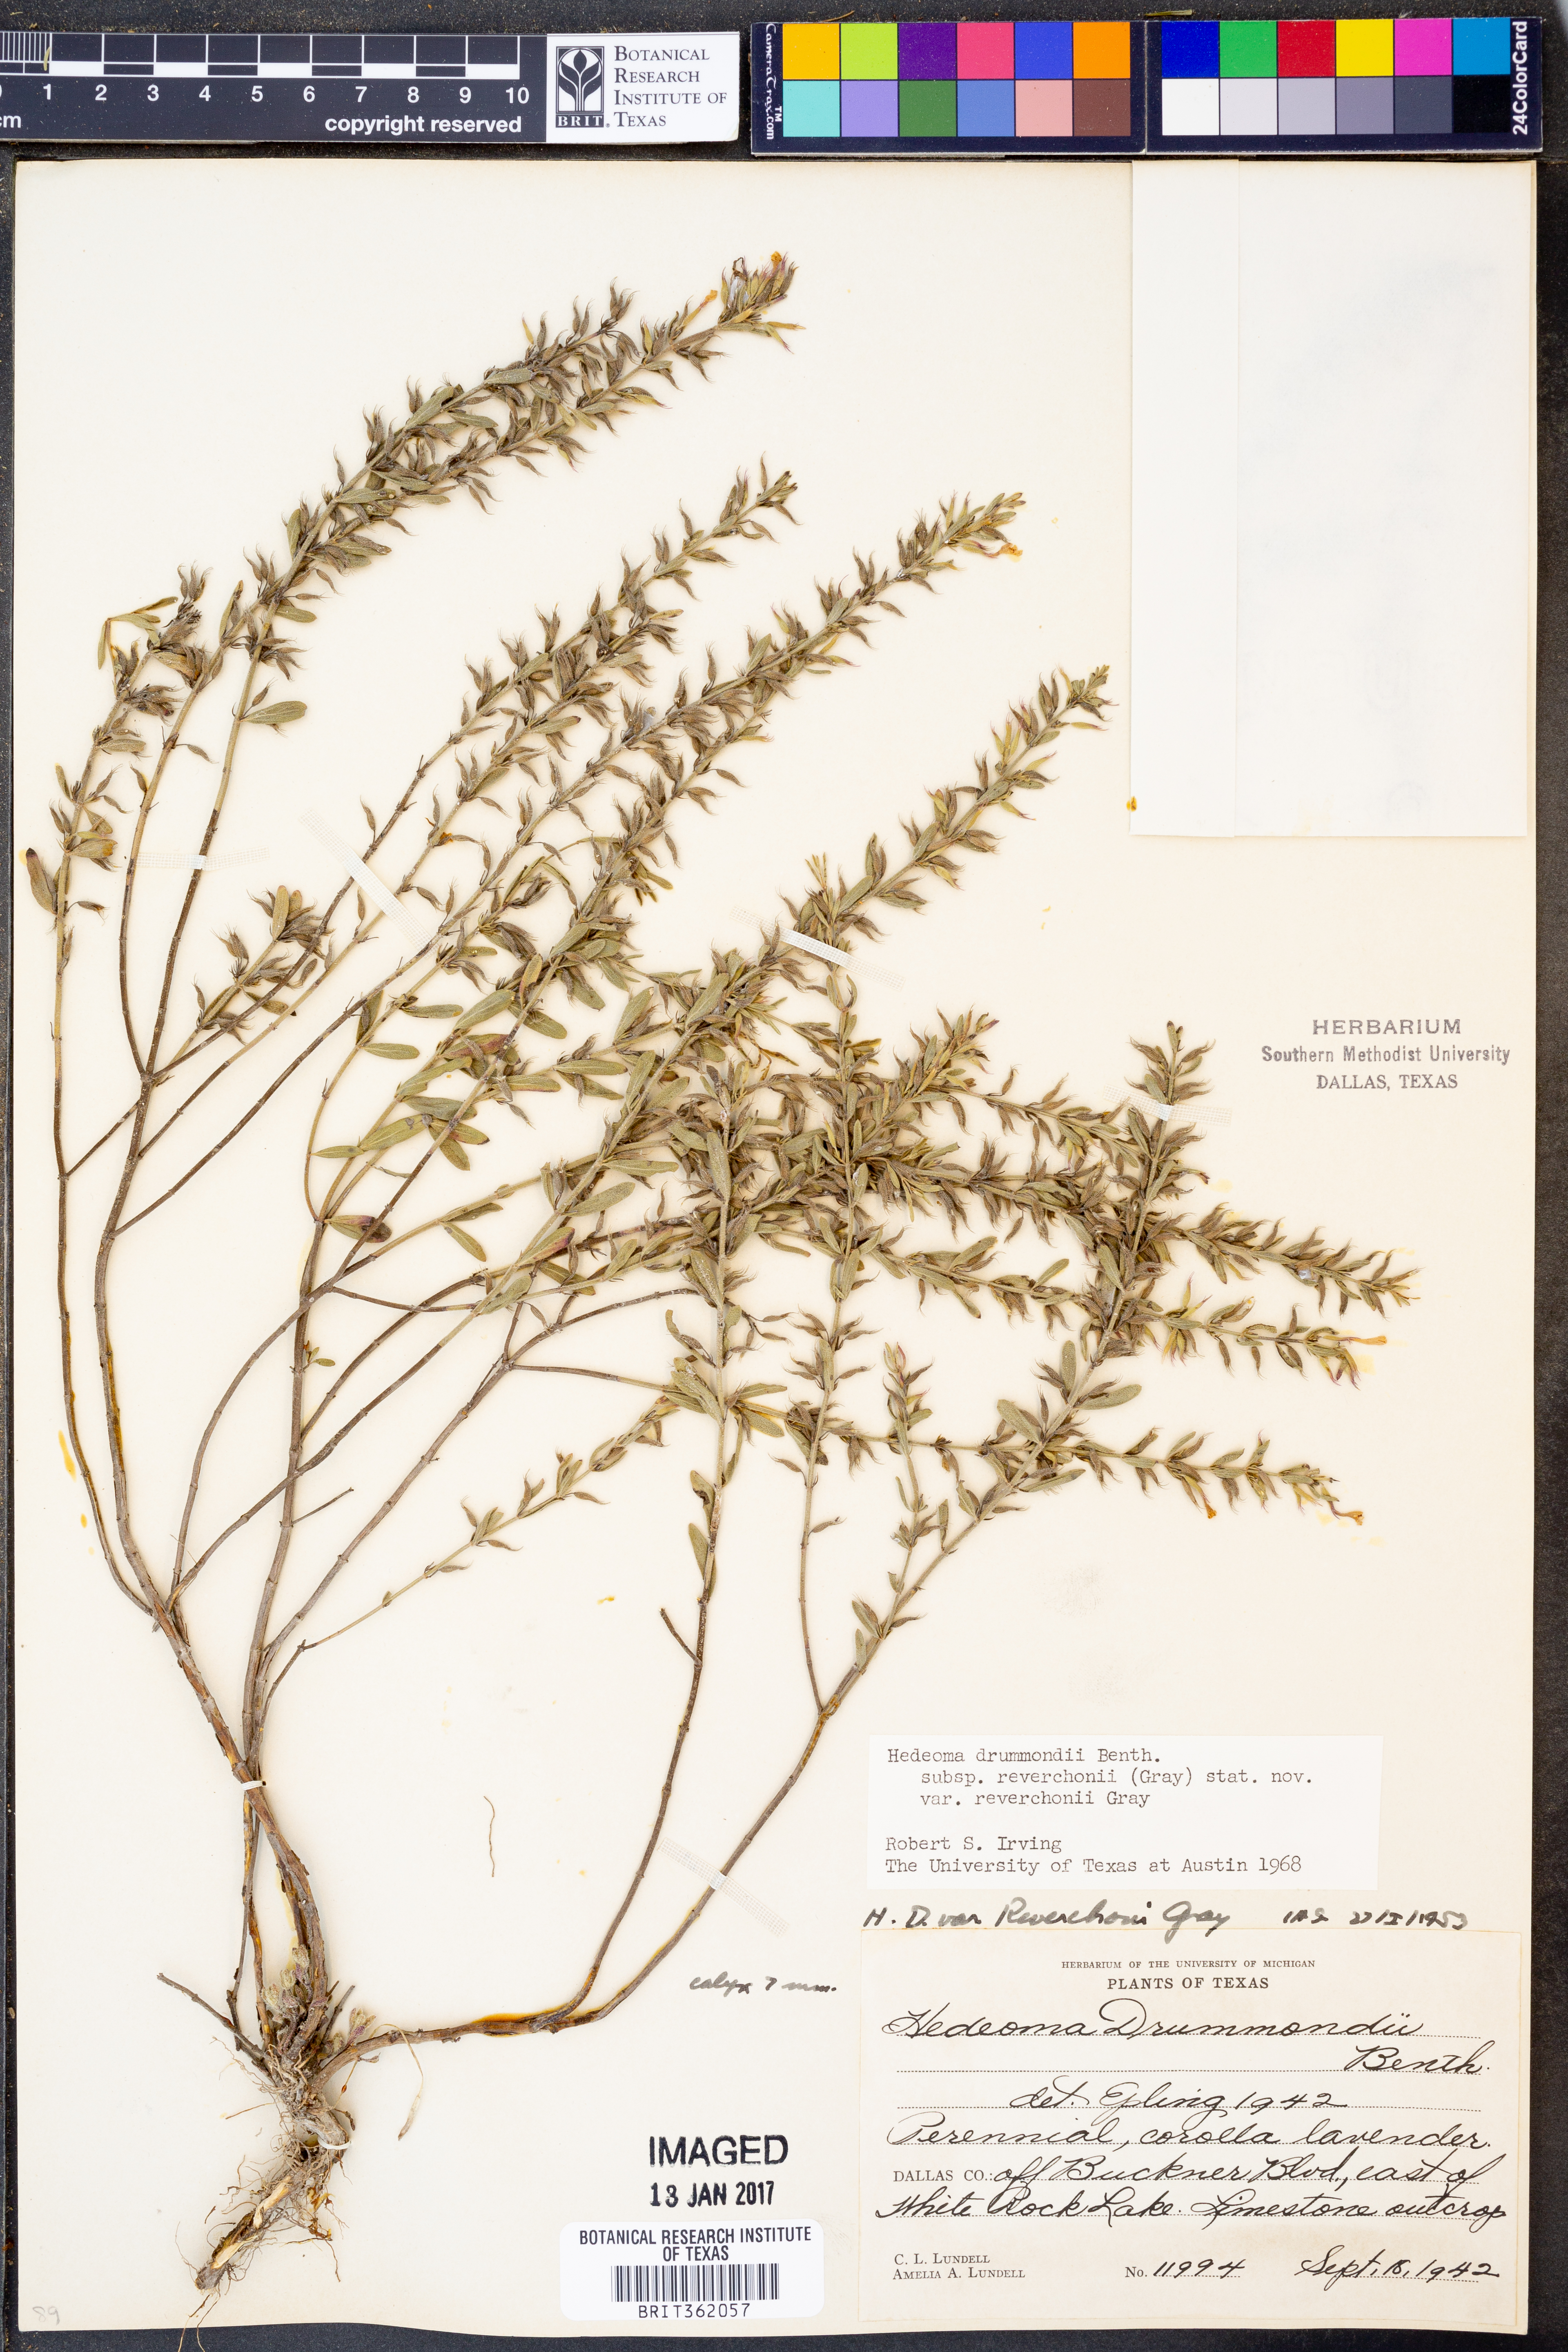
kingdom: Plantae
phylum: Tracheophyta
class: Magnoliopsida
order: Lamiales
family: Lamiaceae
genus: Hedeoma
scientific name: Hedeoma reverchonii
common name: Reverchon's false penny-royal
